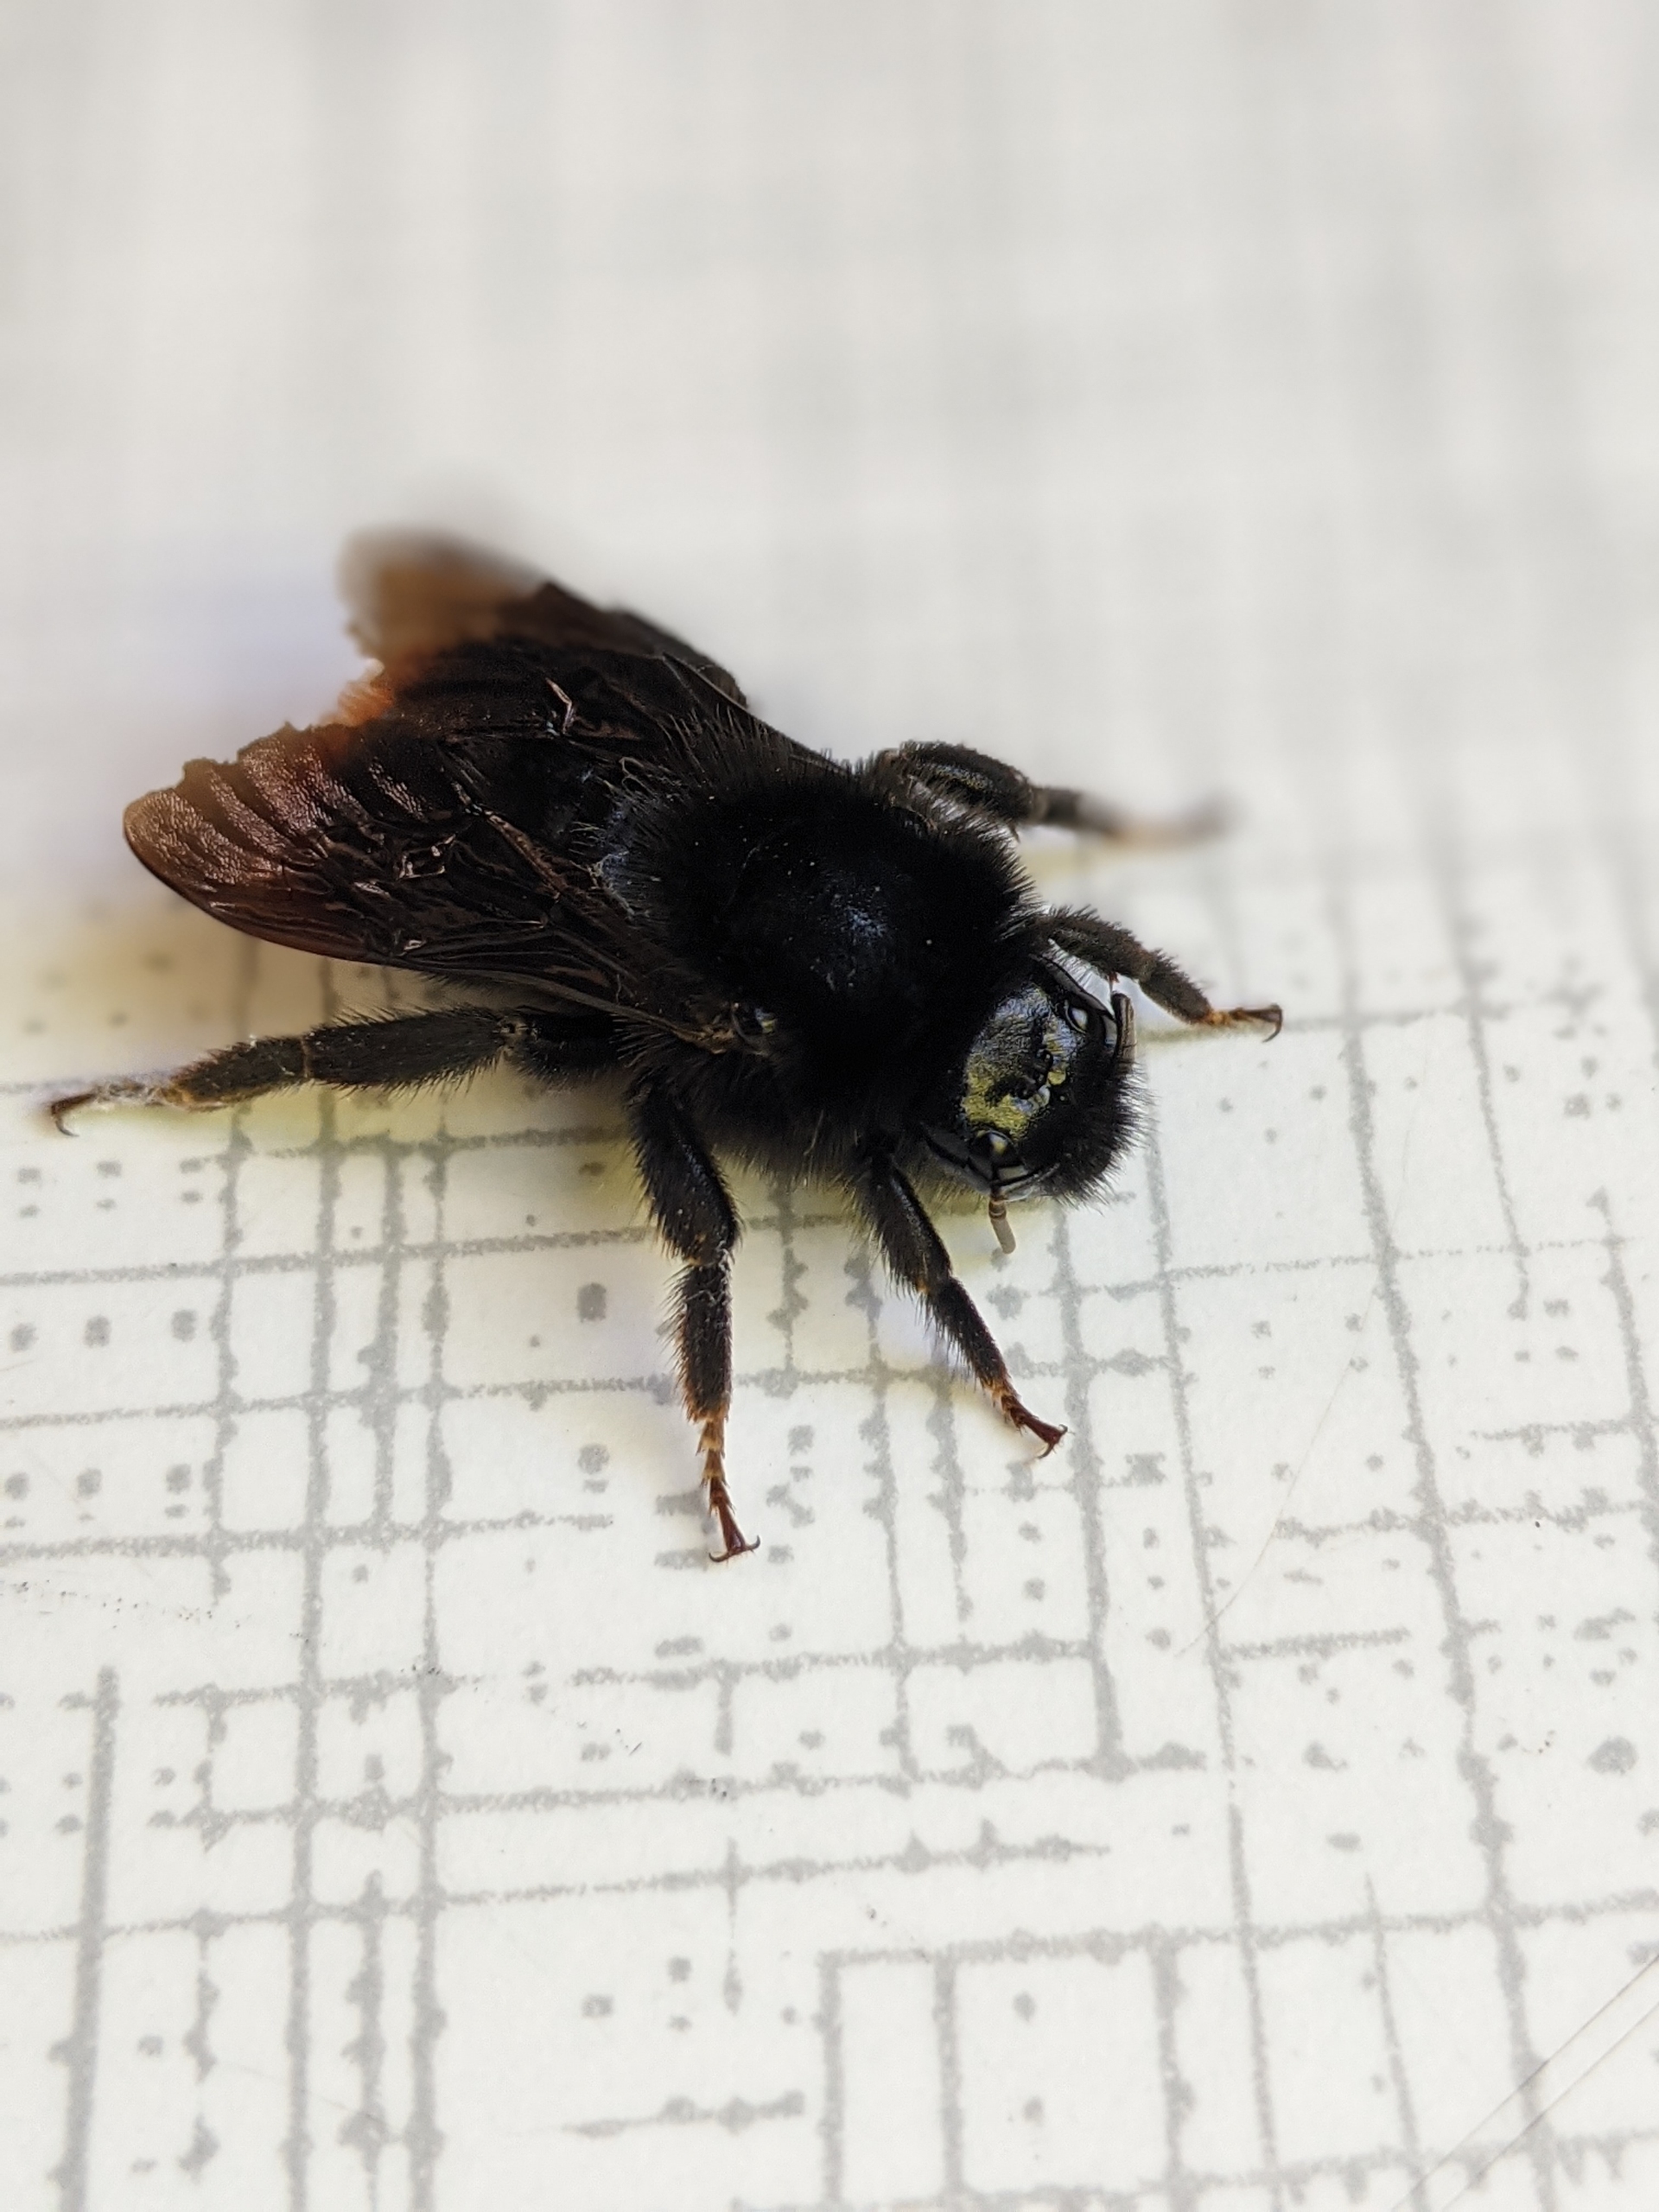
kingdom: Animalia
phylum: Arthropoda
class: Insecta
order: Hymenoptera
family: Apidae
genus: Bombus
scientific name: Bombus rupestris
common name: Stensnyltehumle
